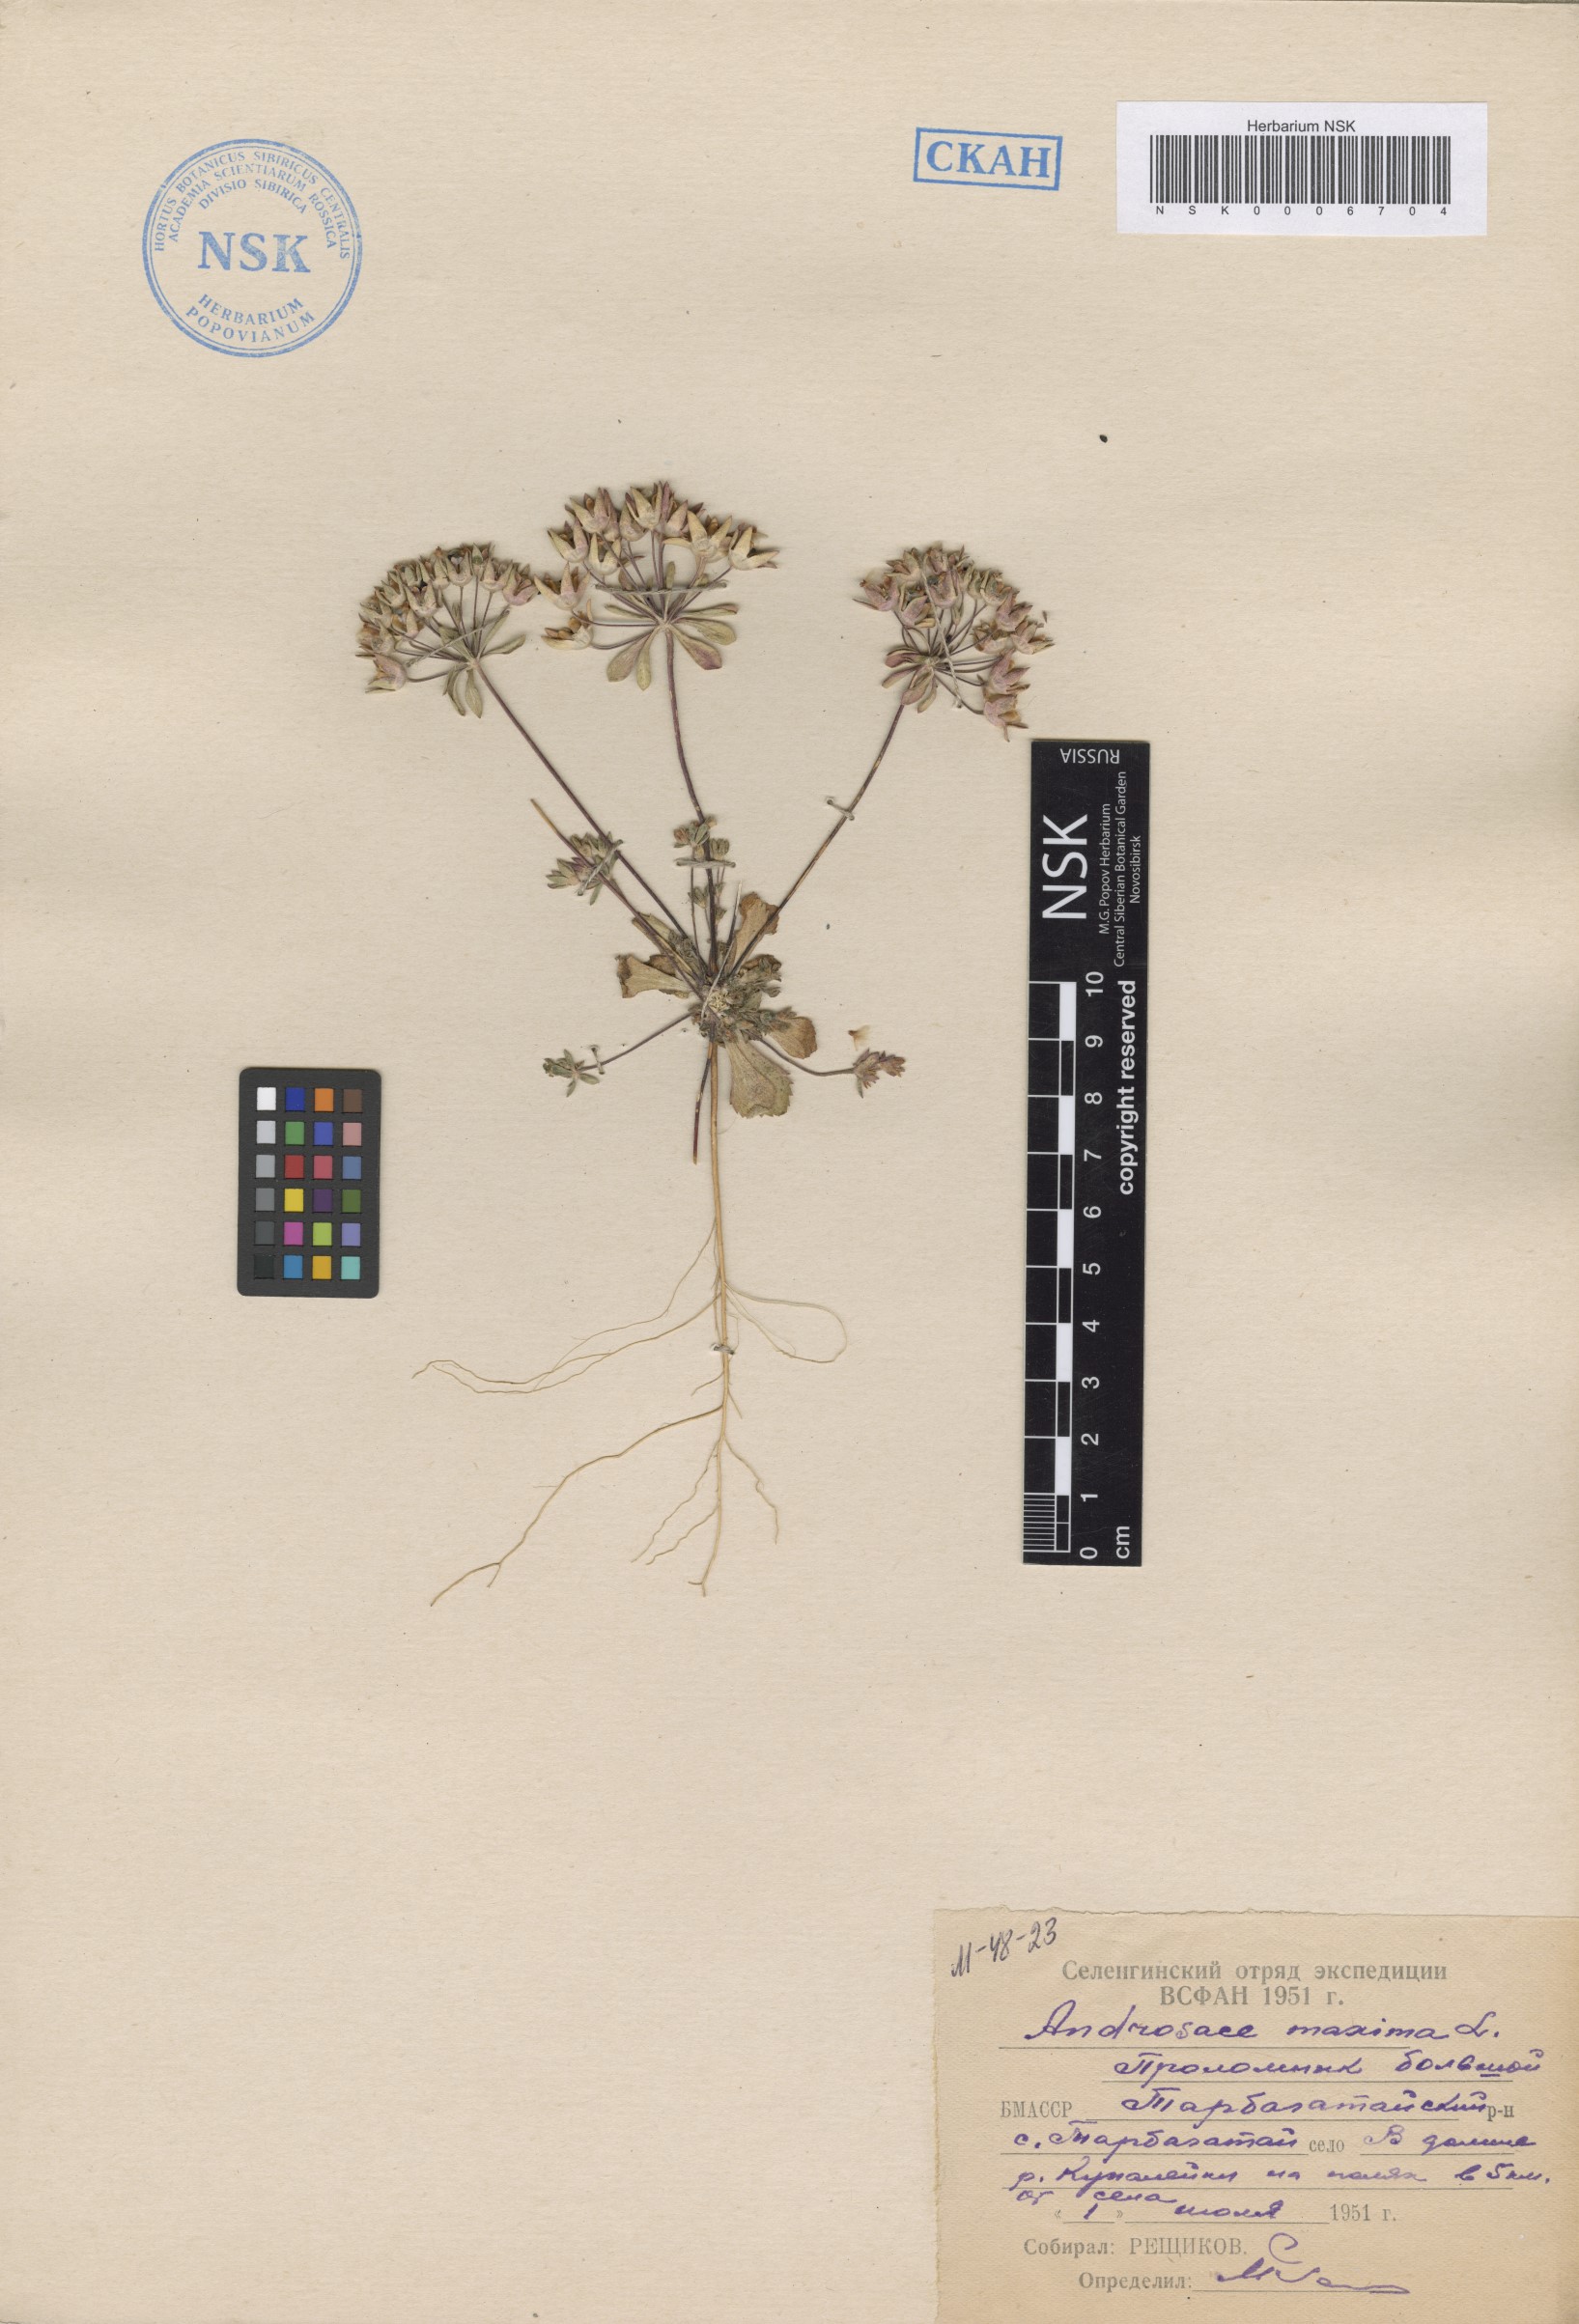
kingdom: Plantae
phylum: Tracheophyta
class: Magnoliopsida
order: Ericales
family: Primulaceae
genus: Androsace
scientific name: Androsace maxima
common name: Annual androsace
